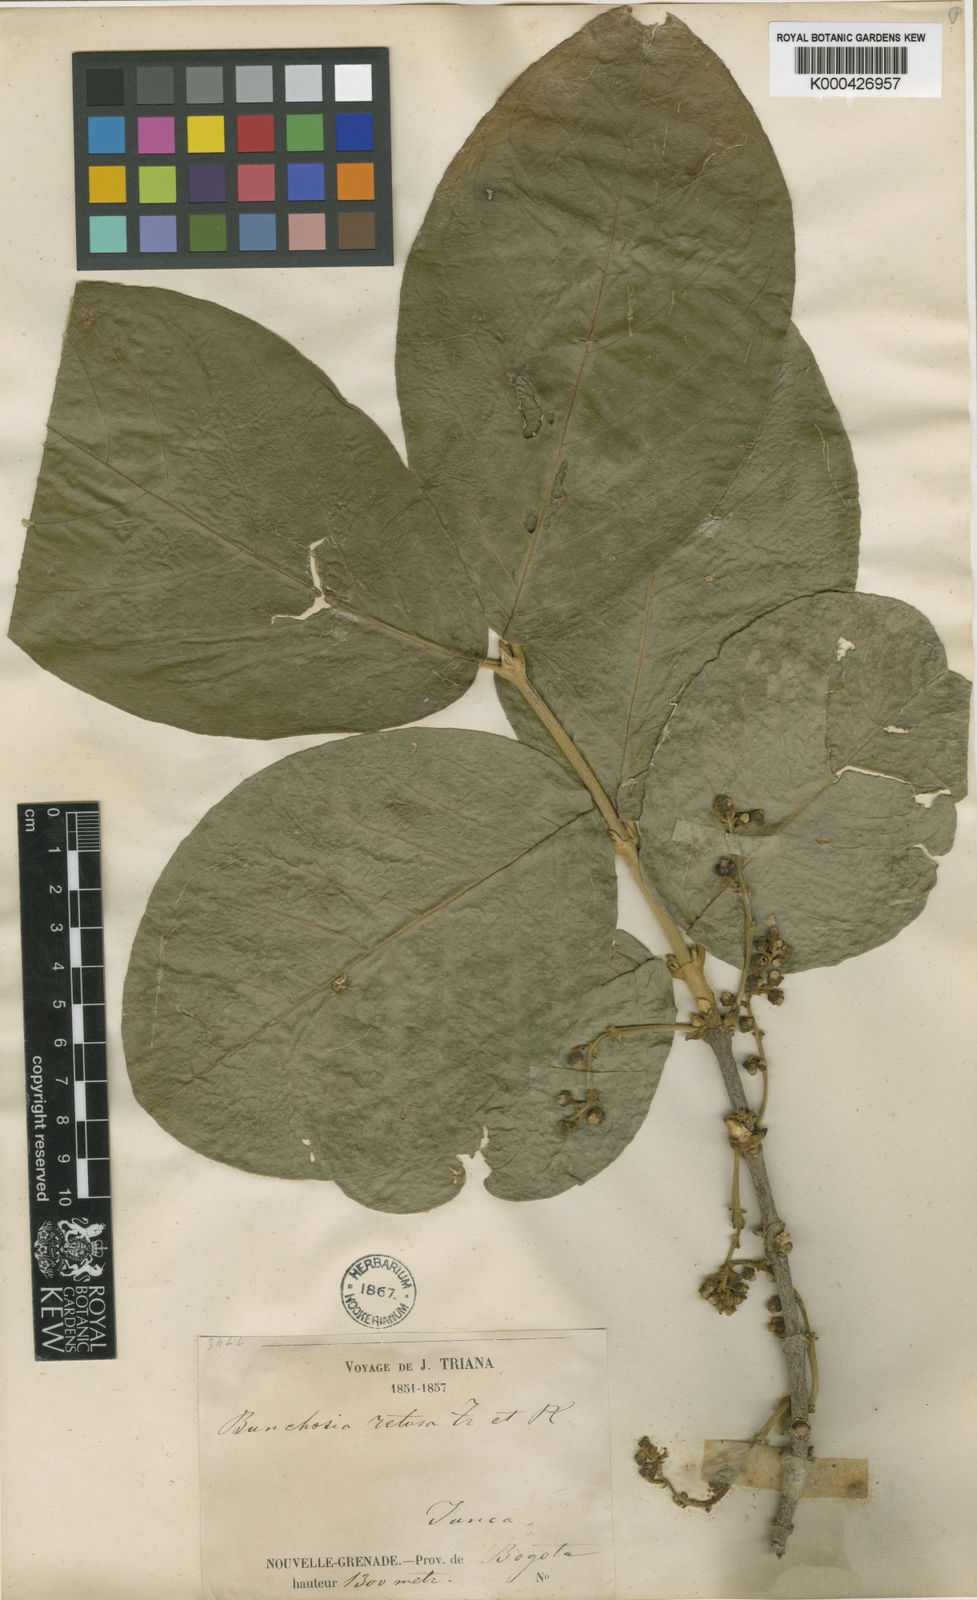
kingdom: Plantae
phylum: Tracheophyta
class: Magnoliopsida
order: Malpighiales
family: Malpighiaceae
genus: Bunchosia
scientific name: Bunchosia retusa
